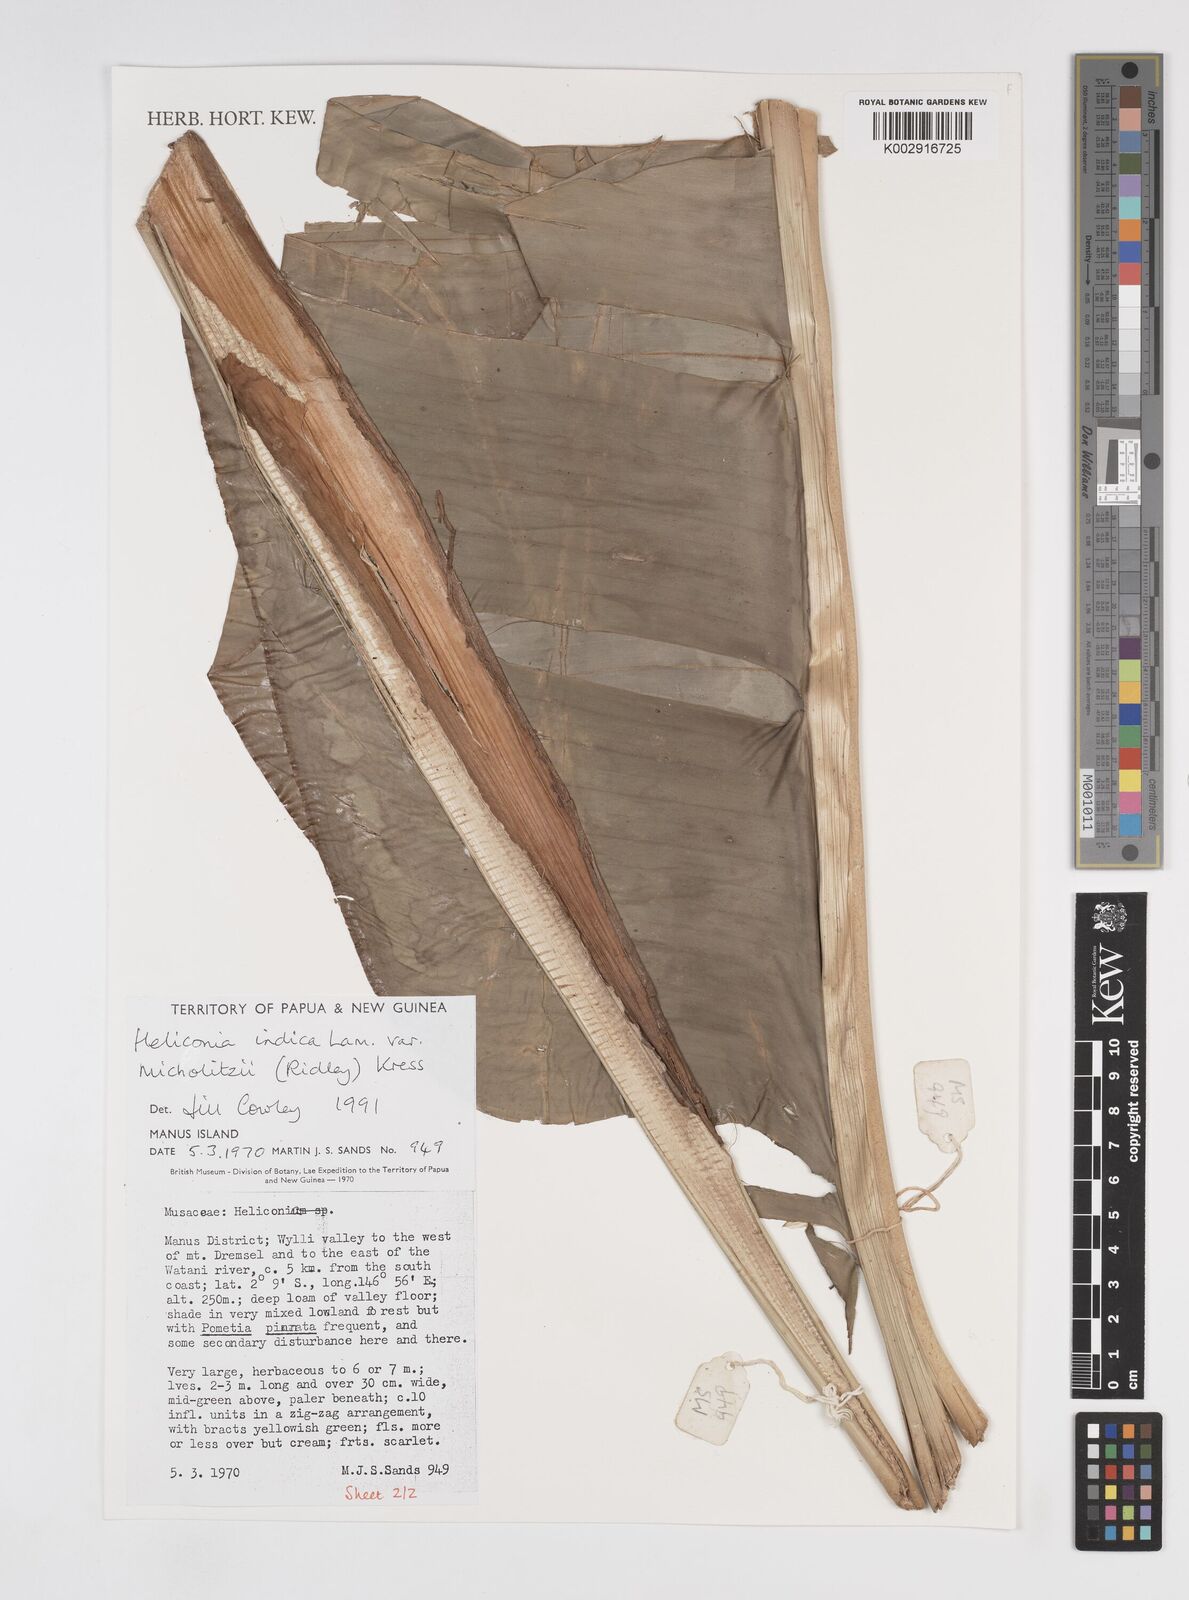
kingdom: Plantae
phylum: Tracheophyta
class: Liliopsida
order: Zingiberales
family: Heliconiaceae
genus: Heliconia
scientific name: Heliconia indica
